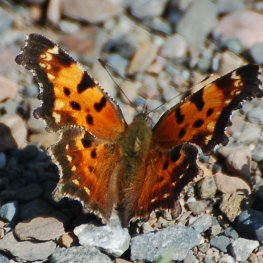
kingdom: Animalia
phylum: Arthropoda
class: Insecta
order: Lepidoptera
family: Nymphalidae
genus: Polygonia
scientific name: Polygonia faunus
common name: Green Comma
